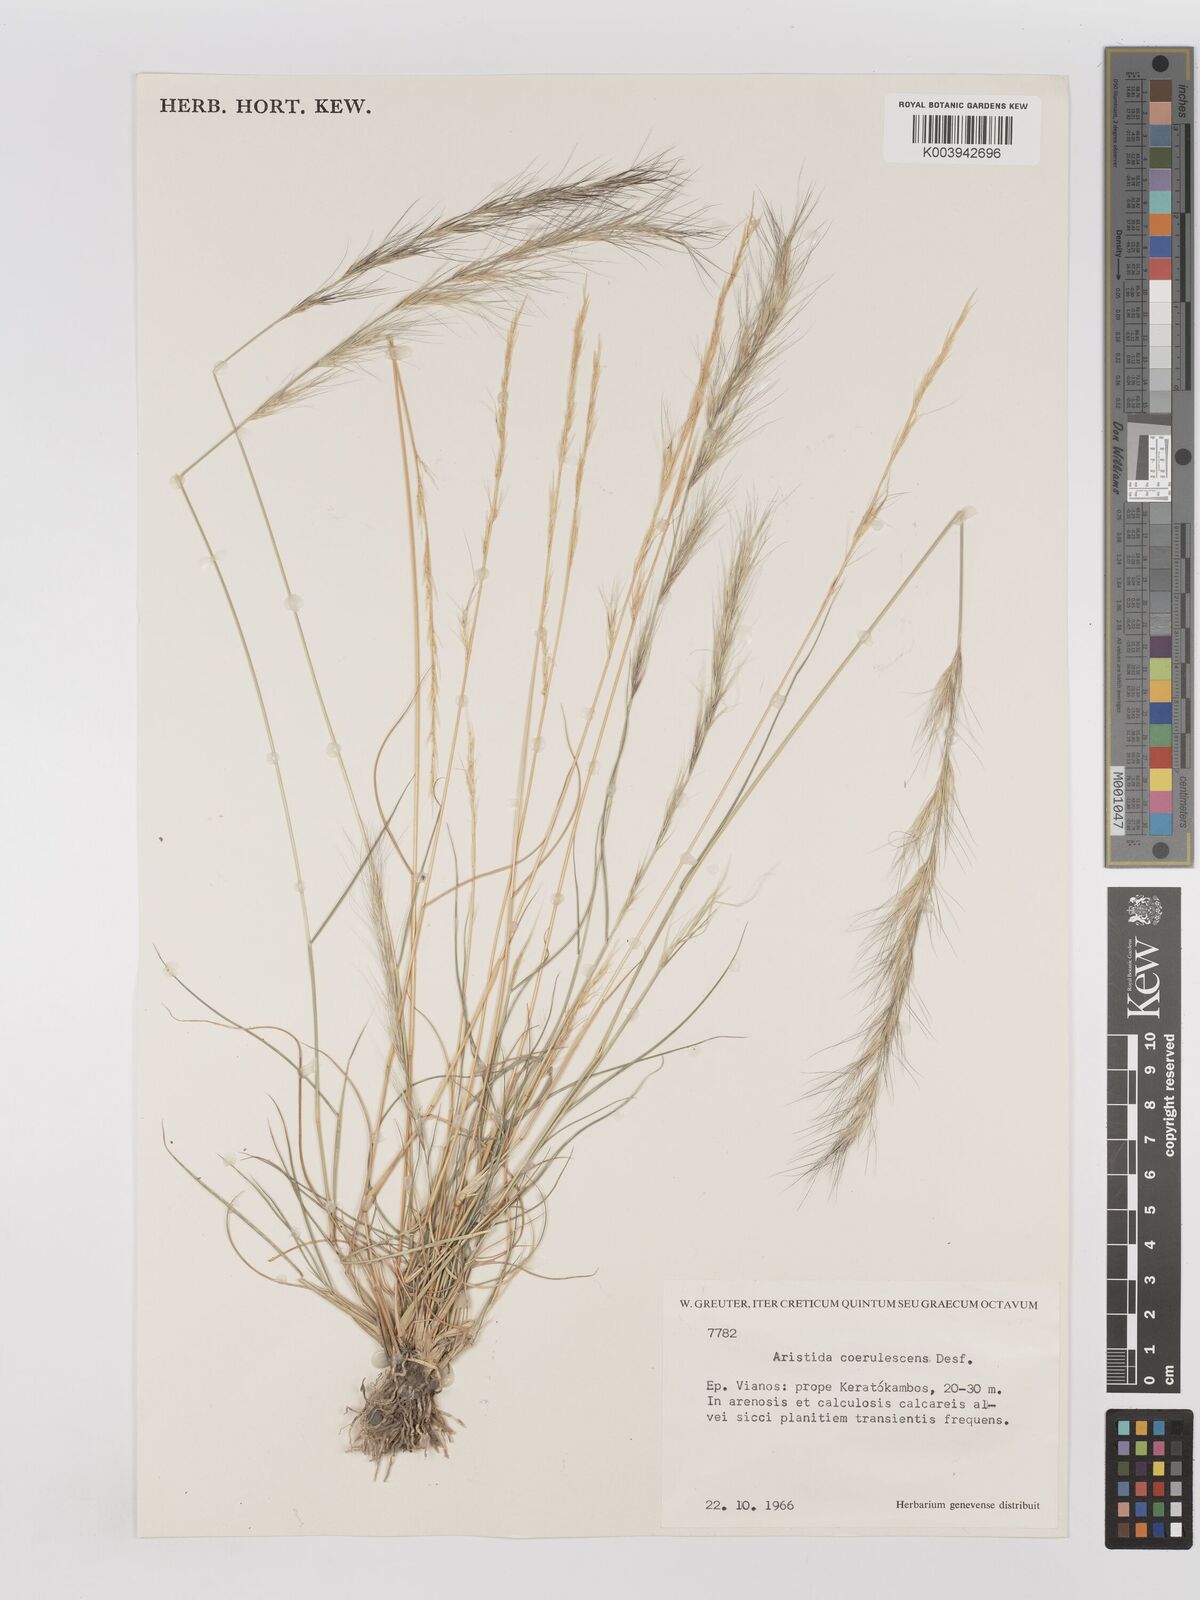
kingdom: Plantae
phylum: Tracheophyta
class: Liliopsida
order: Poales
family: Poaceae
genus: Aristida
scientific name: Aristida adscensionis
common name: Sixweeks threeawn
